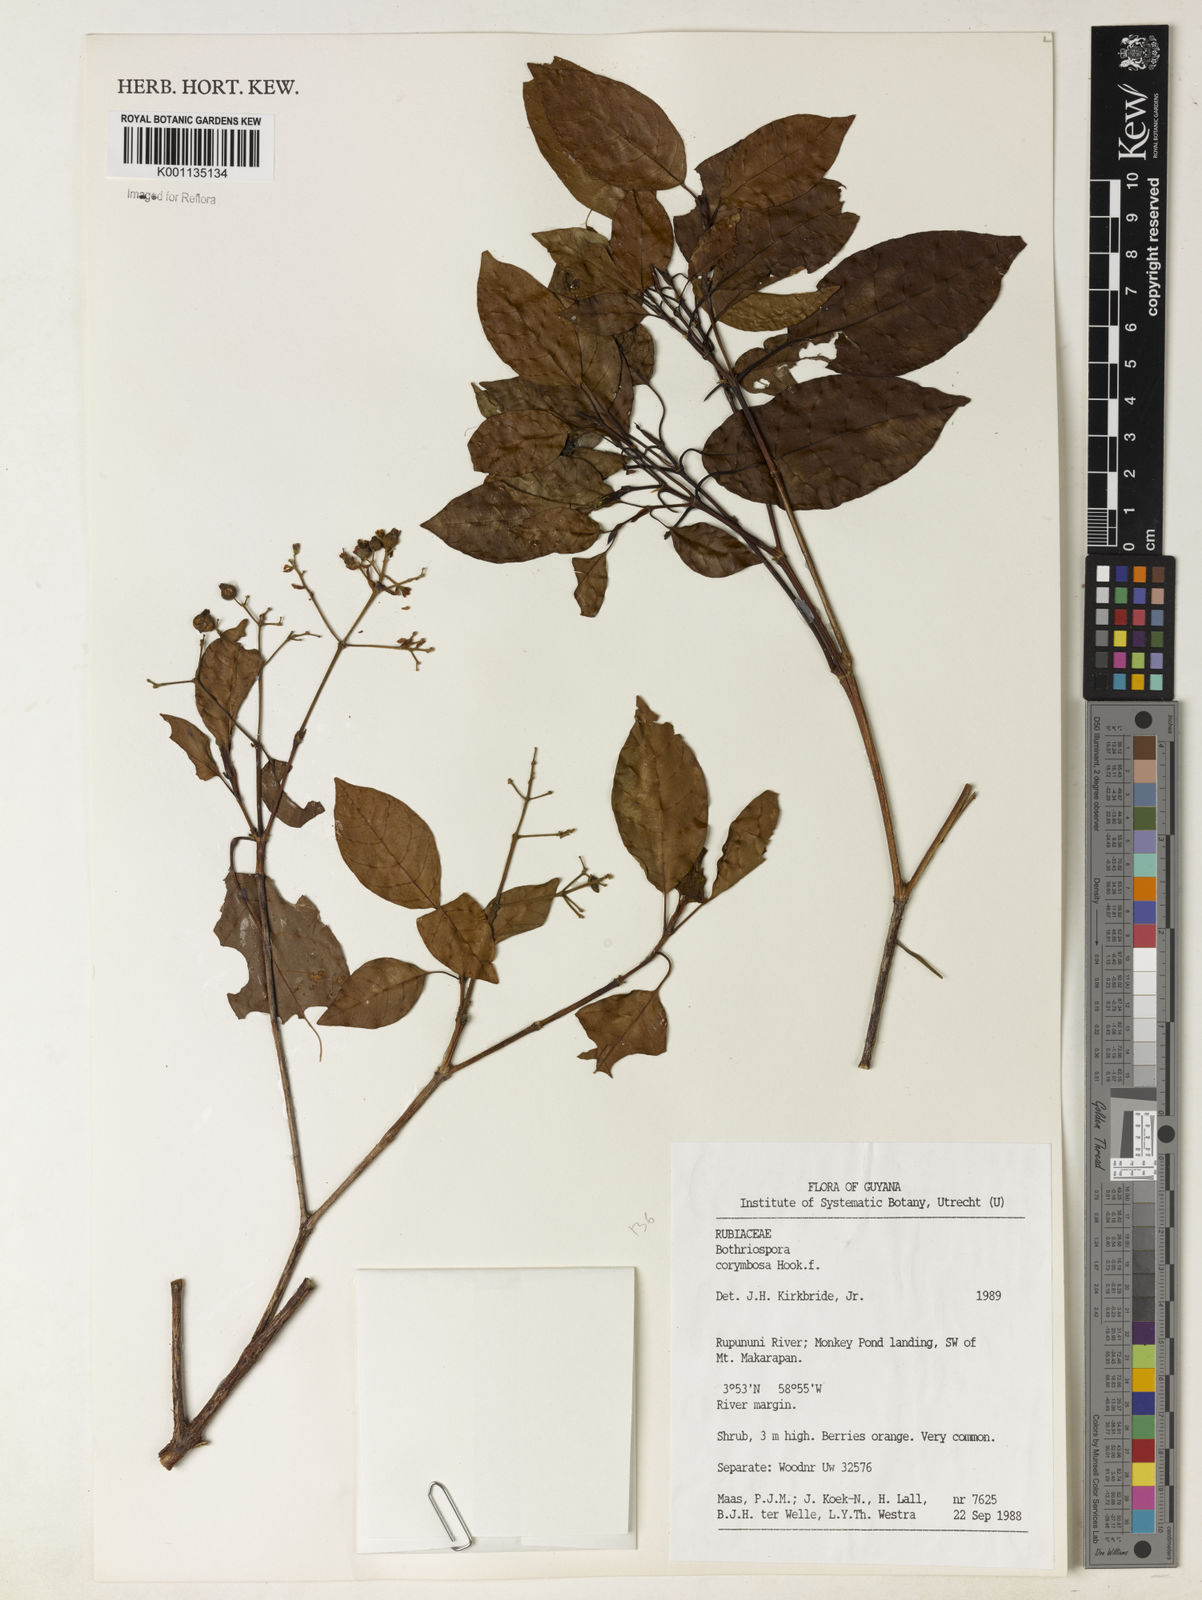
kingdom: Plantae
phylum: Tracheophyta
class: Magnoliopsida
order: Gentianales
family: Rubiaceae
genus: Bothriospora
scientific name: Bothriospora corymbosa
